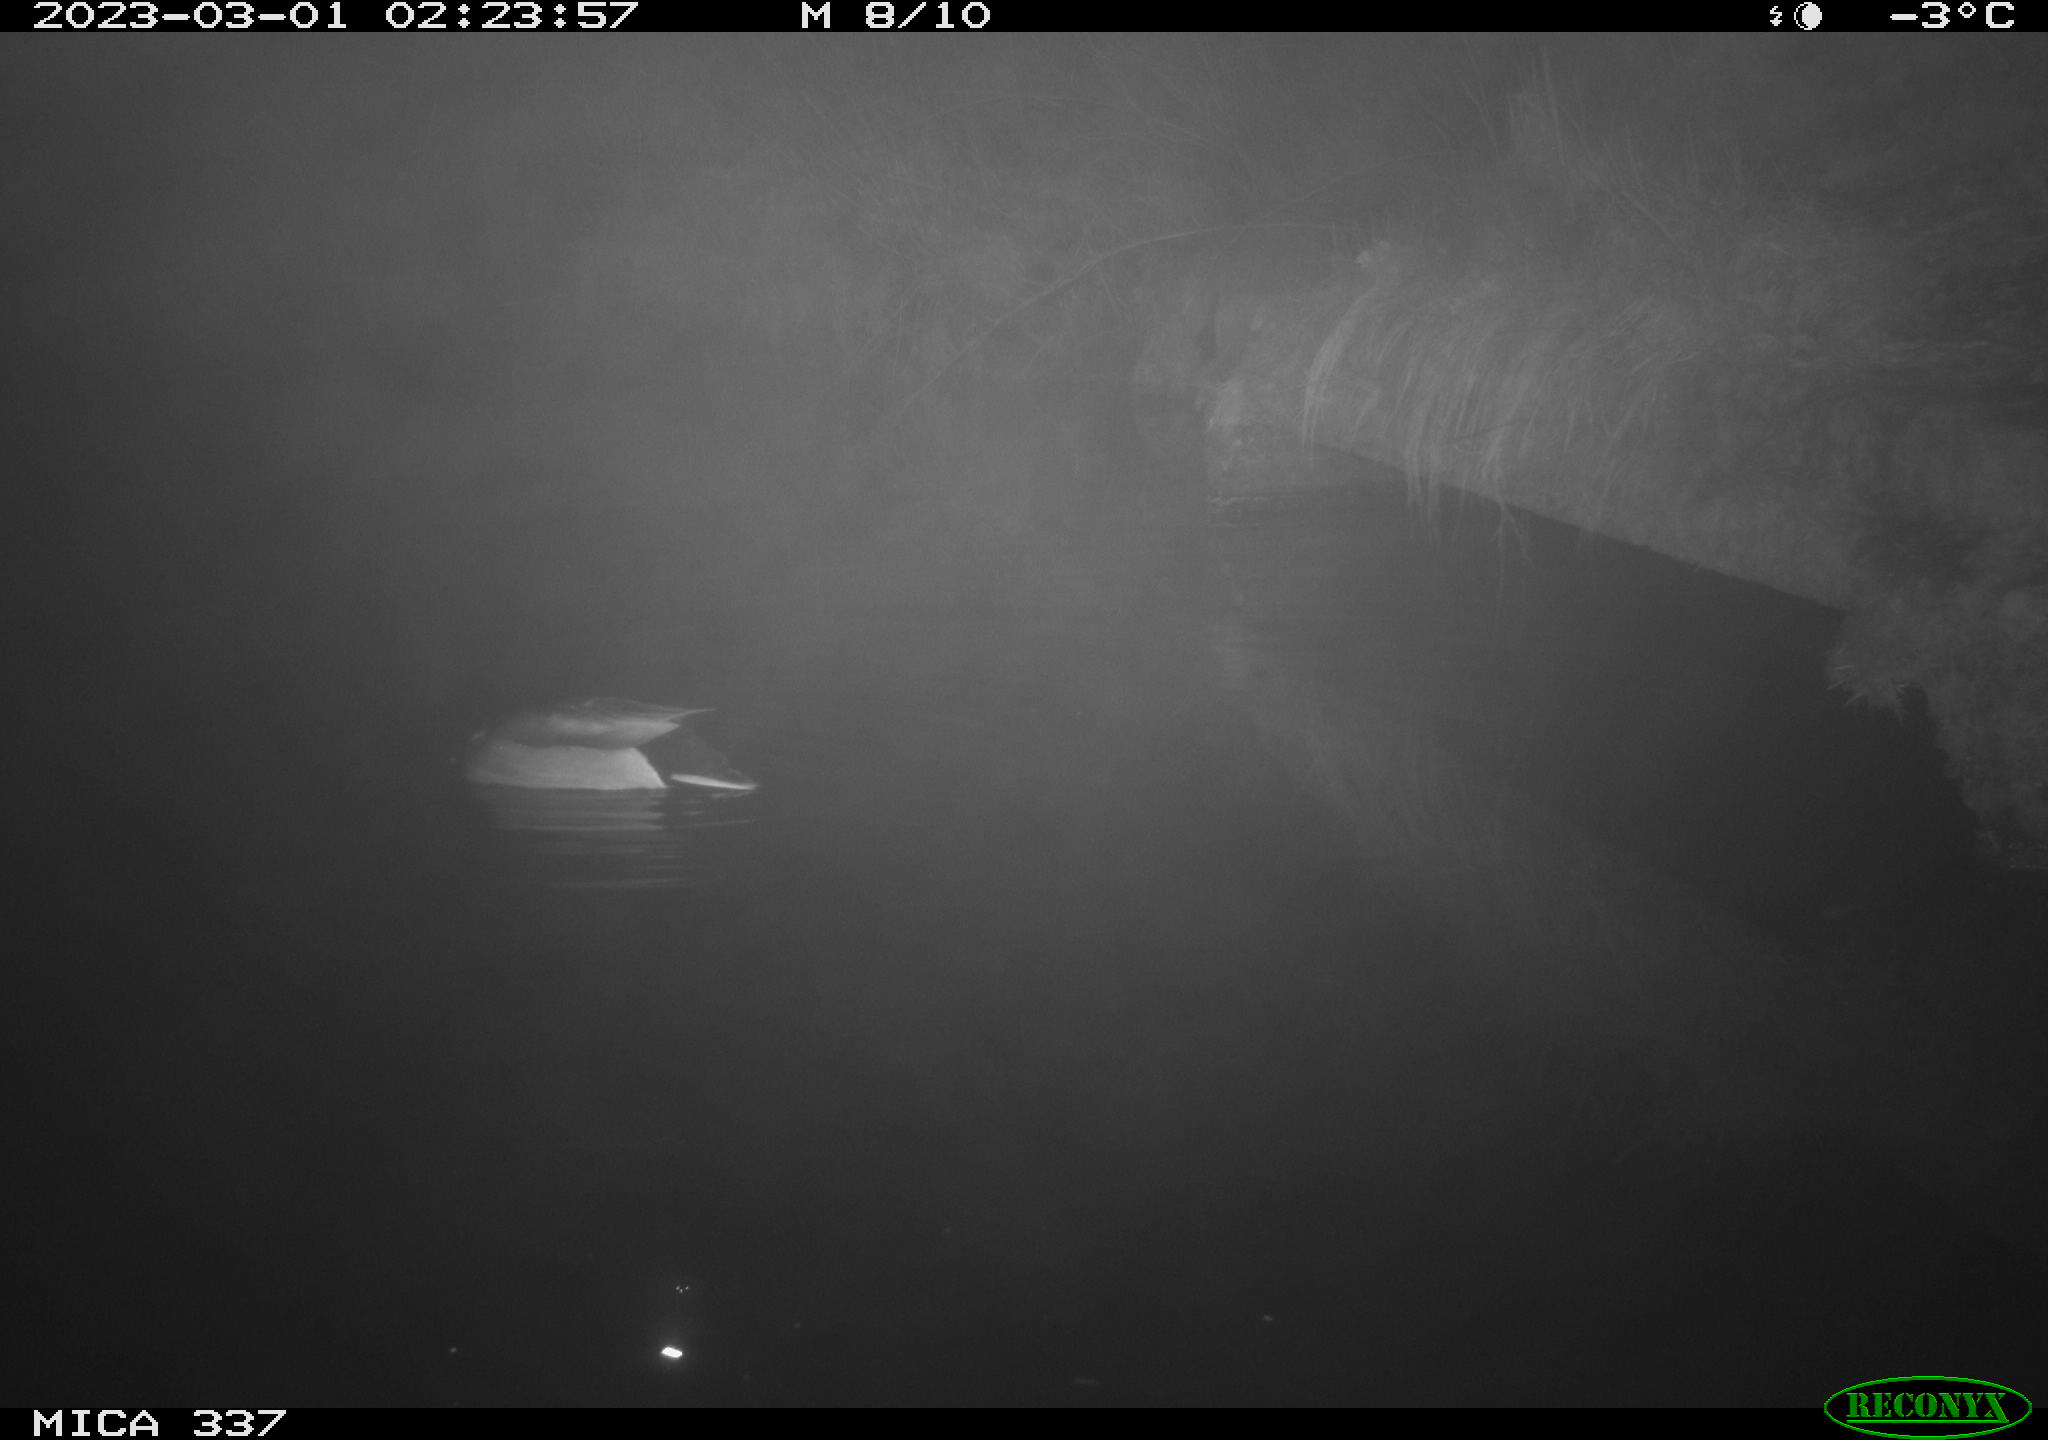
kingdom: Animalia
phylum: Chordata
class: Aves
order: Anseriformes
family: Anatidae
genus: Anas
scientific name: Anas
